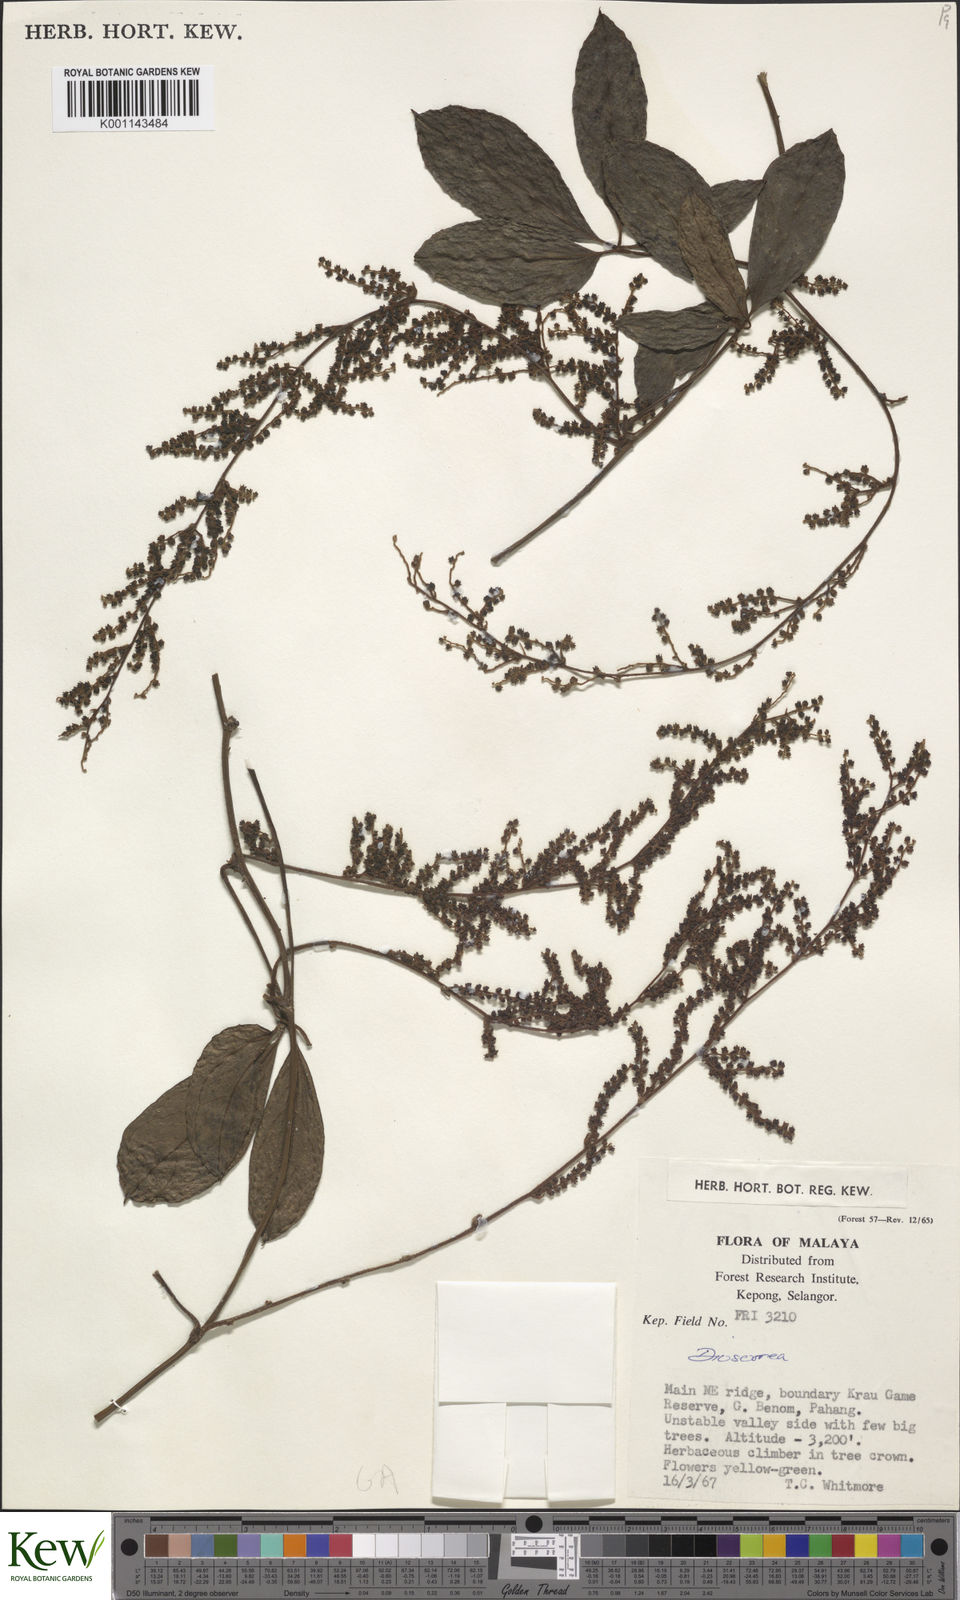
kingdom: Plantae
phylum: Tracheophyta
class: Liliopsida
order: Dioscoreales
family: Dioscoreaceae
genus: Dioscorea
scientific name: Dioscorea
